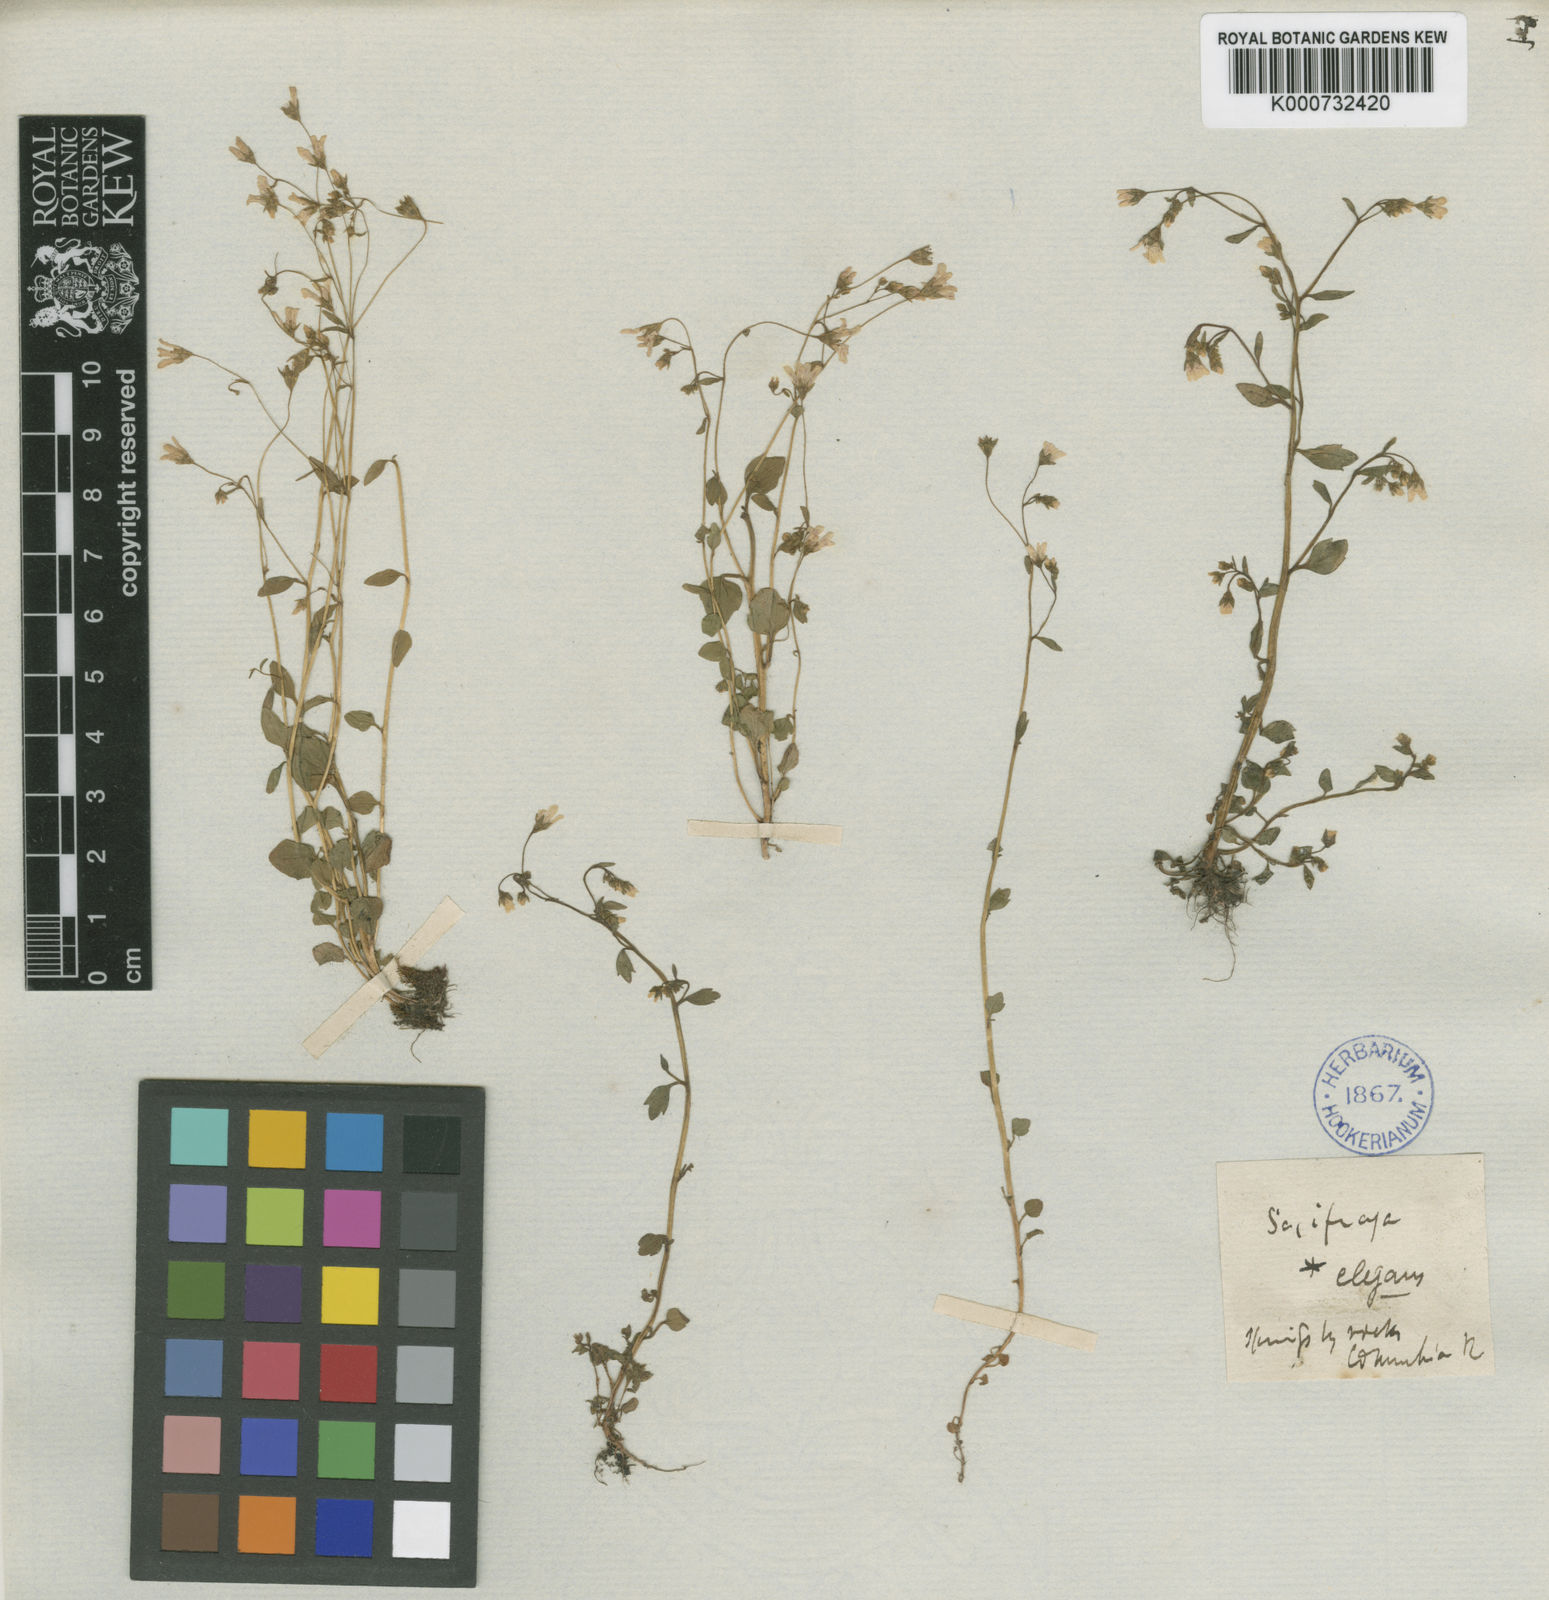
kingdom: Plantae
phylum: Tracheophyta
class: Magnoliopsida
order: Saxifragales
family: Saxifragaceae
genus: Cascadia
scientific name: Cascadia nuttallii
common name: Nuttall's saxifrage
